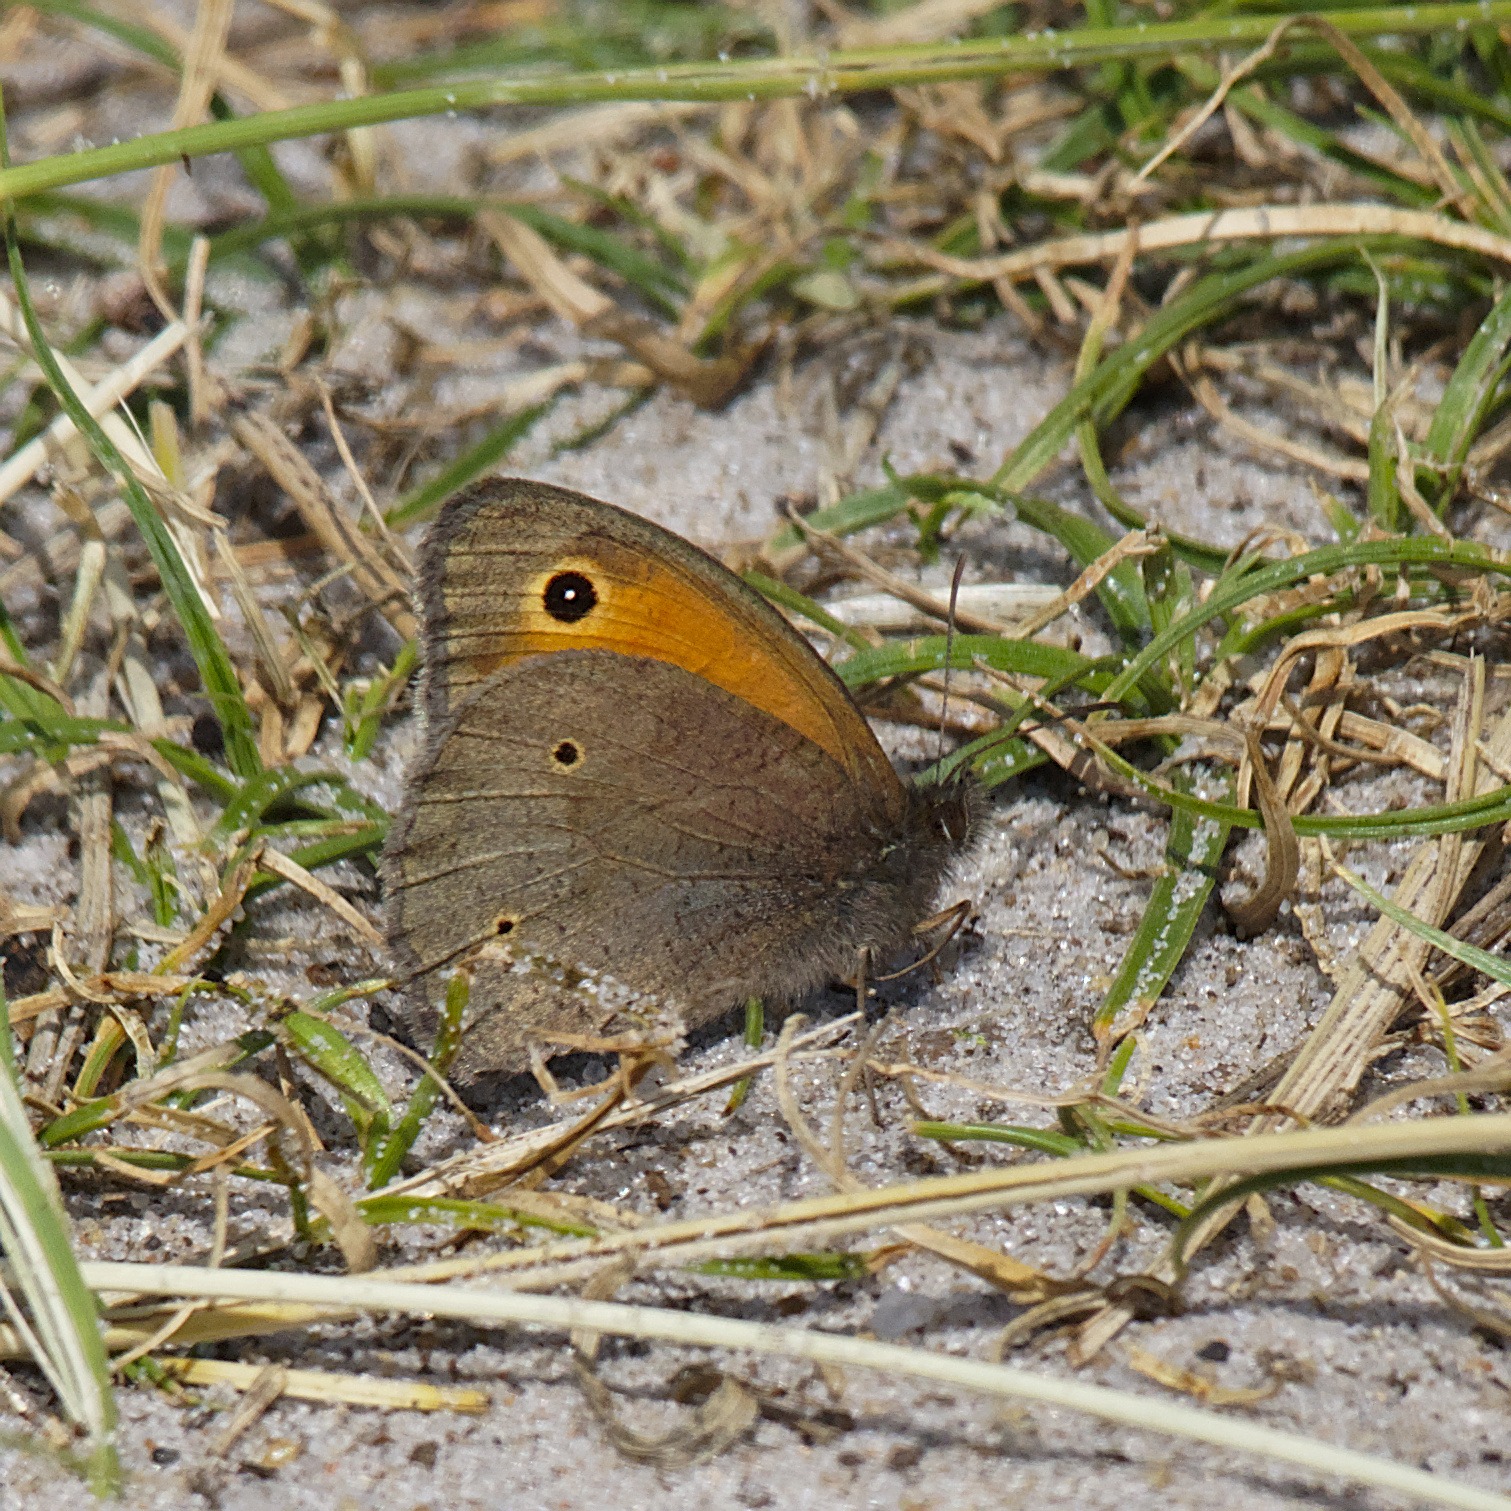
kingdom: Animalia
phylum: Arthropoda
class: Insecta
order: Lepidoptera
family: Nymphalidae
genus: Maniola
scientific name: Maniola jurtina
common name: Græsrandøje
